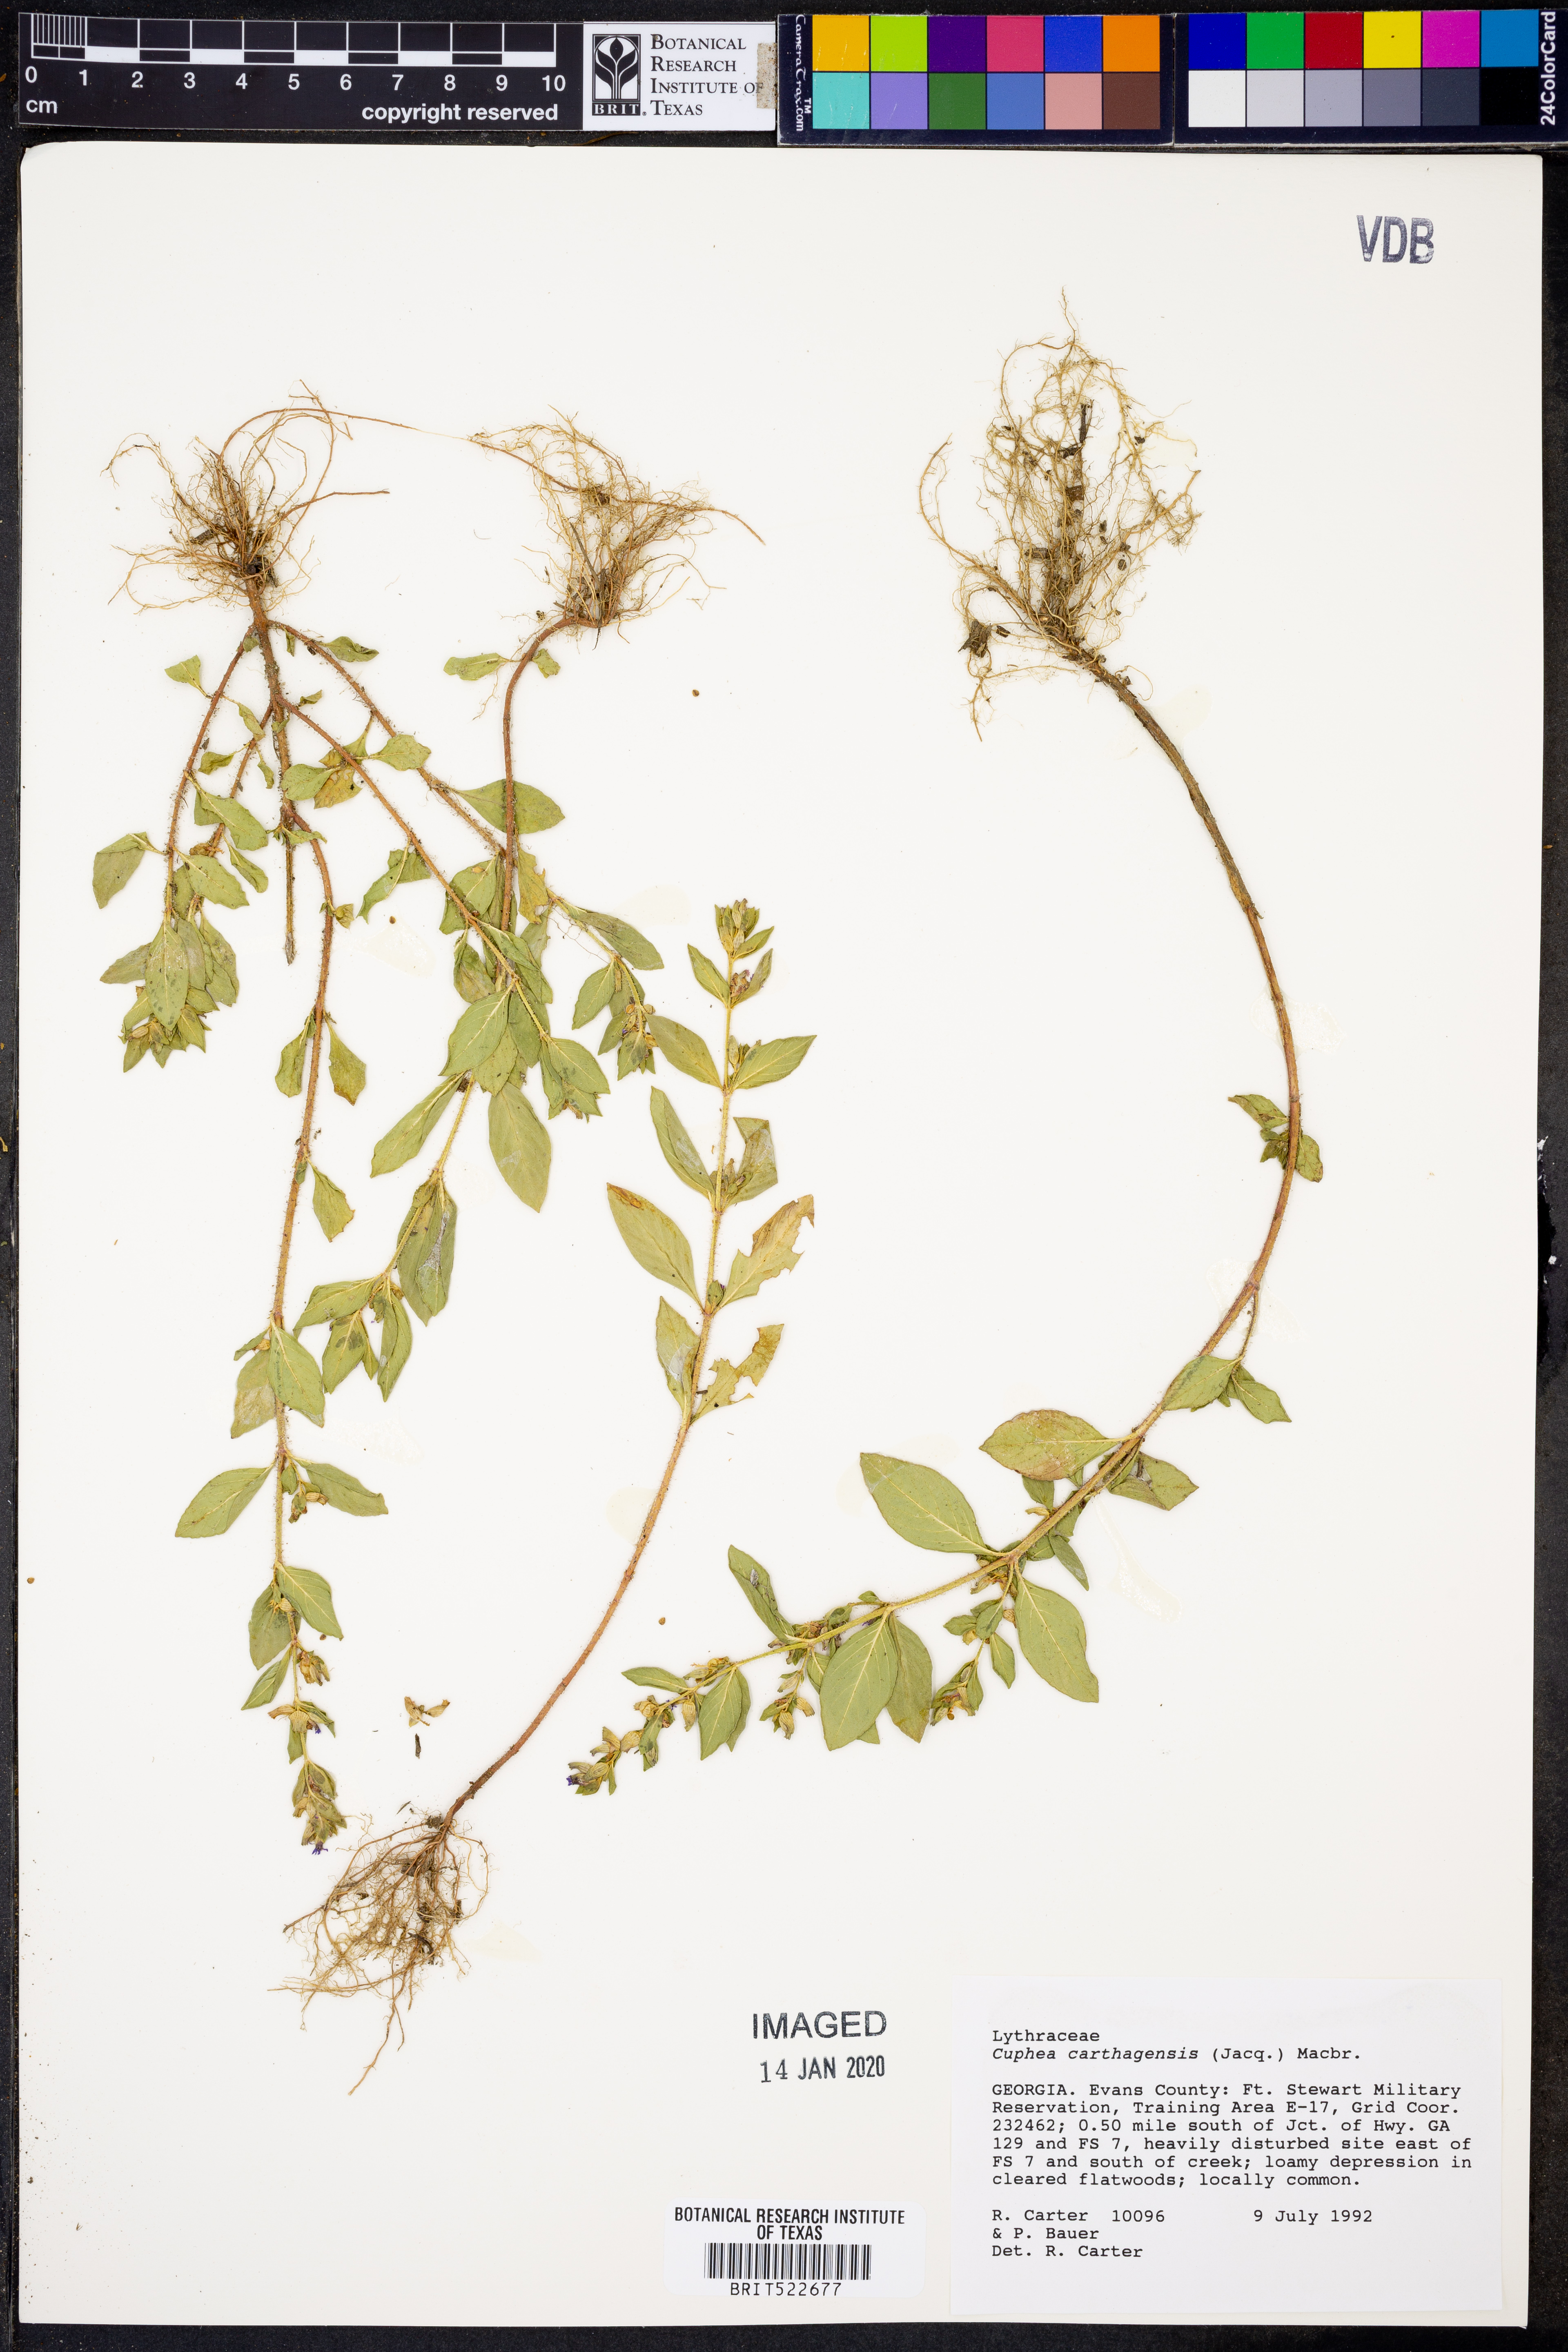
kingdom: Plantae
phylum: Tracheophyta
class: Magnoliopsida
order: Myrtales
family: Lythraceae
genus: Cuphea
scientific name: Cuphea carthagenensis
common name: Colombian waxweed
